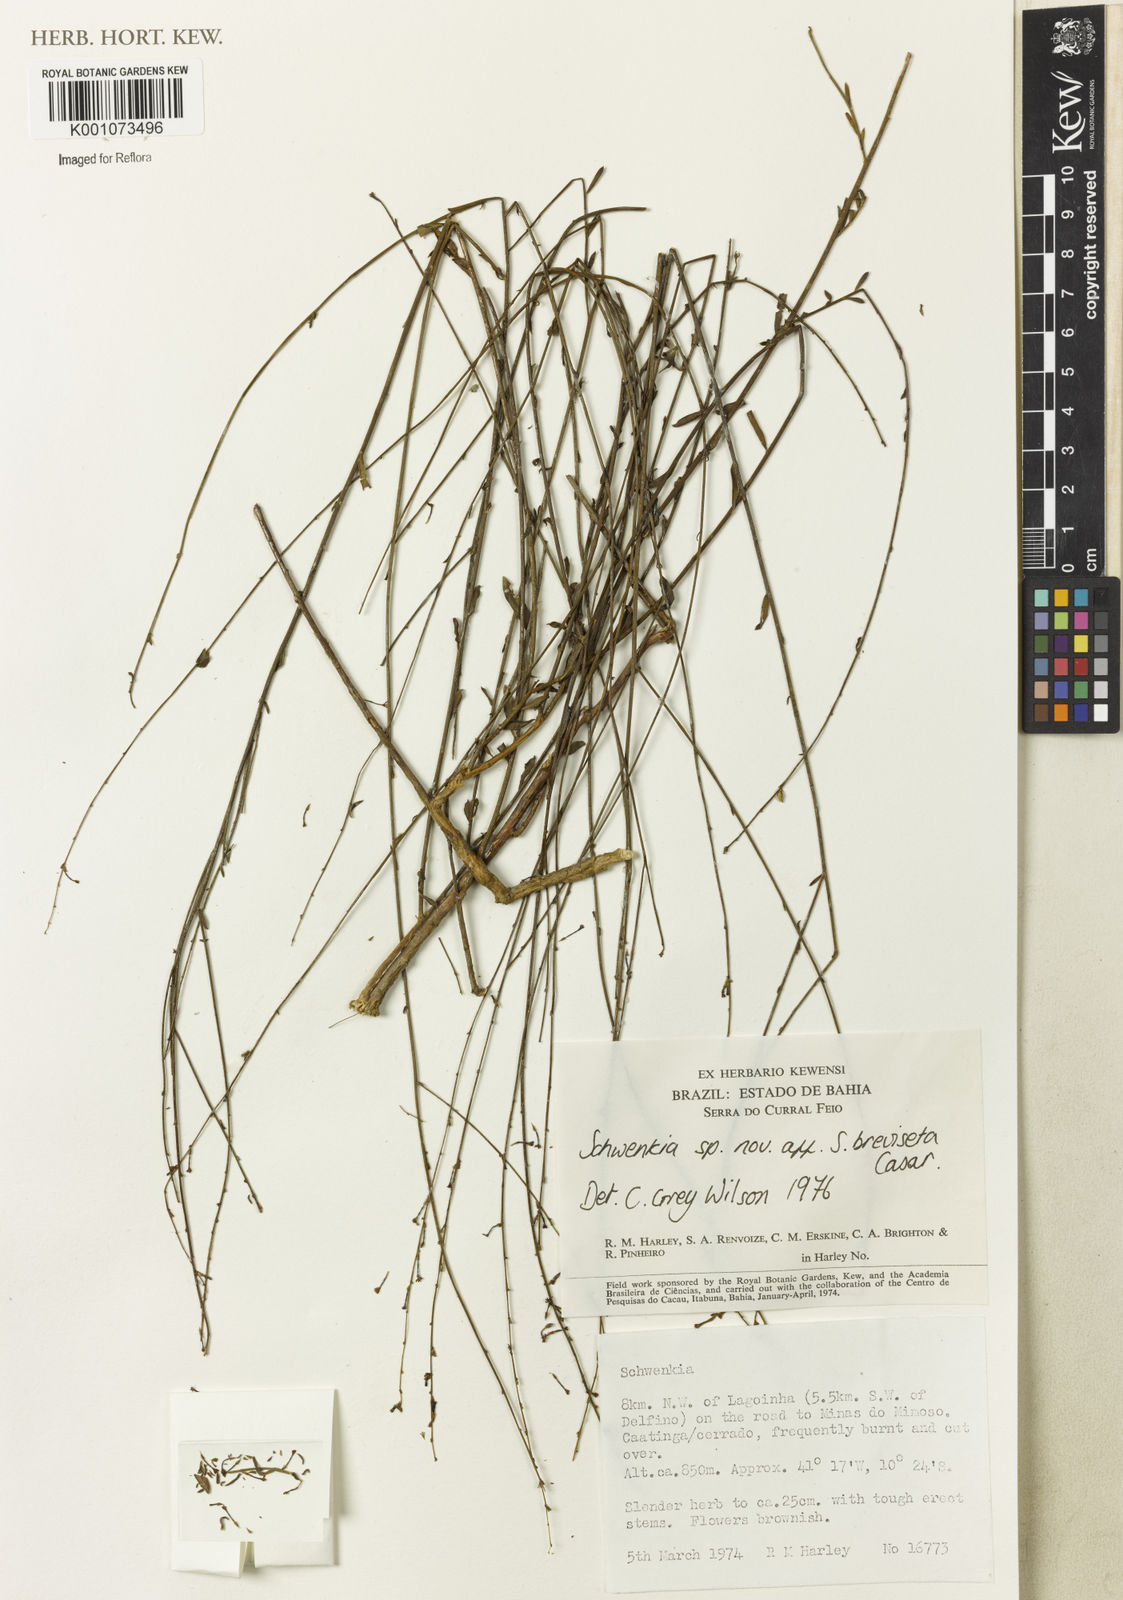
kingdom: Plantae
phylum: Tracheophyta
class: Magnoliopsida
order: Solanales
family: Solanaceae
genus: Schwenckia
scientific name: Schwenckia breviseta
